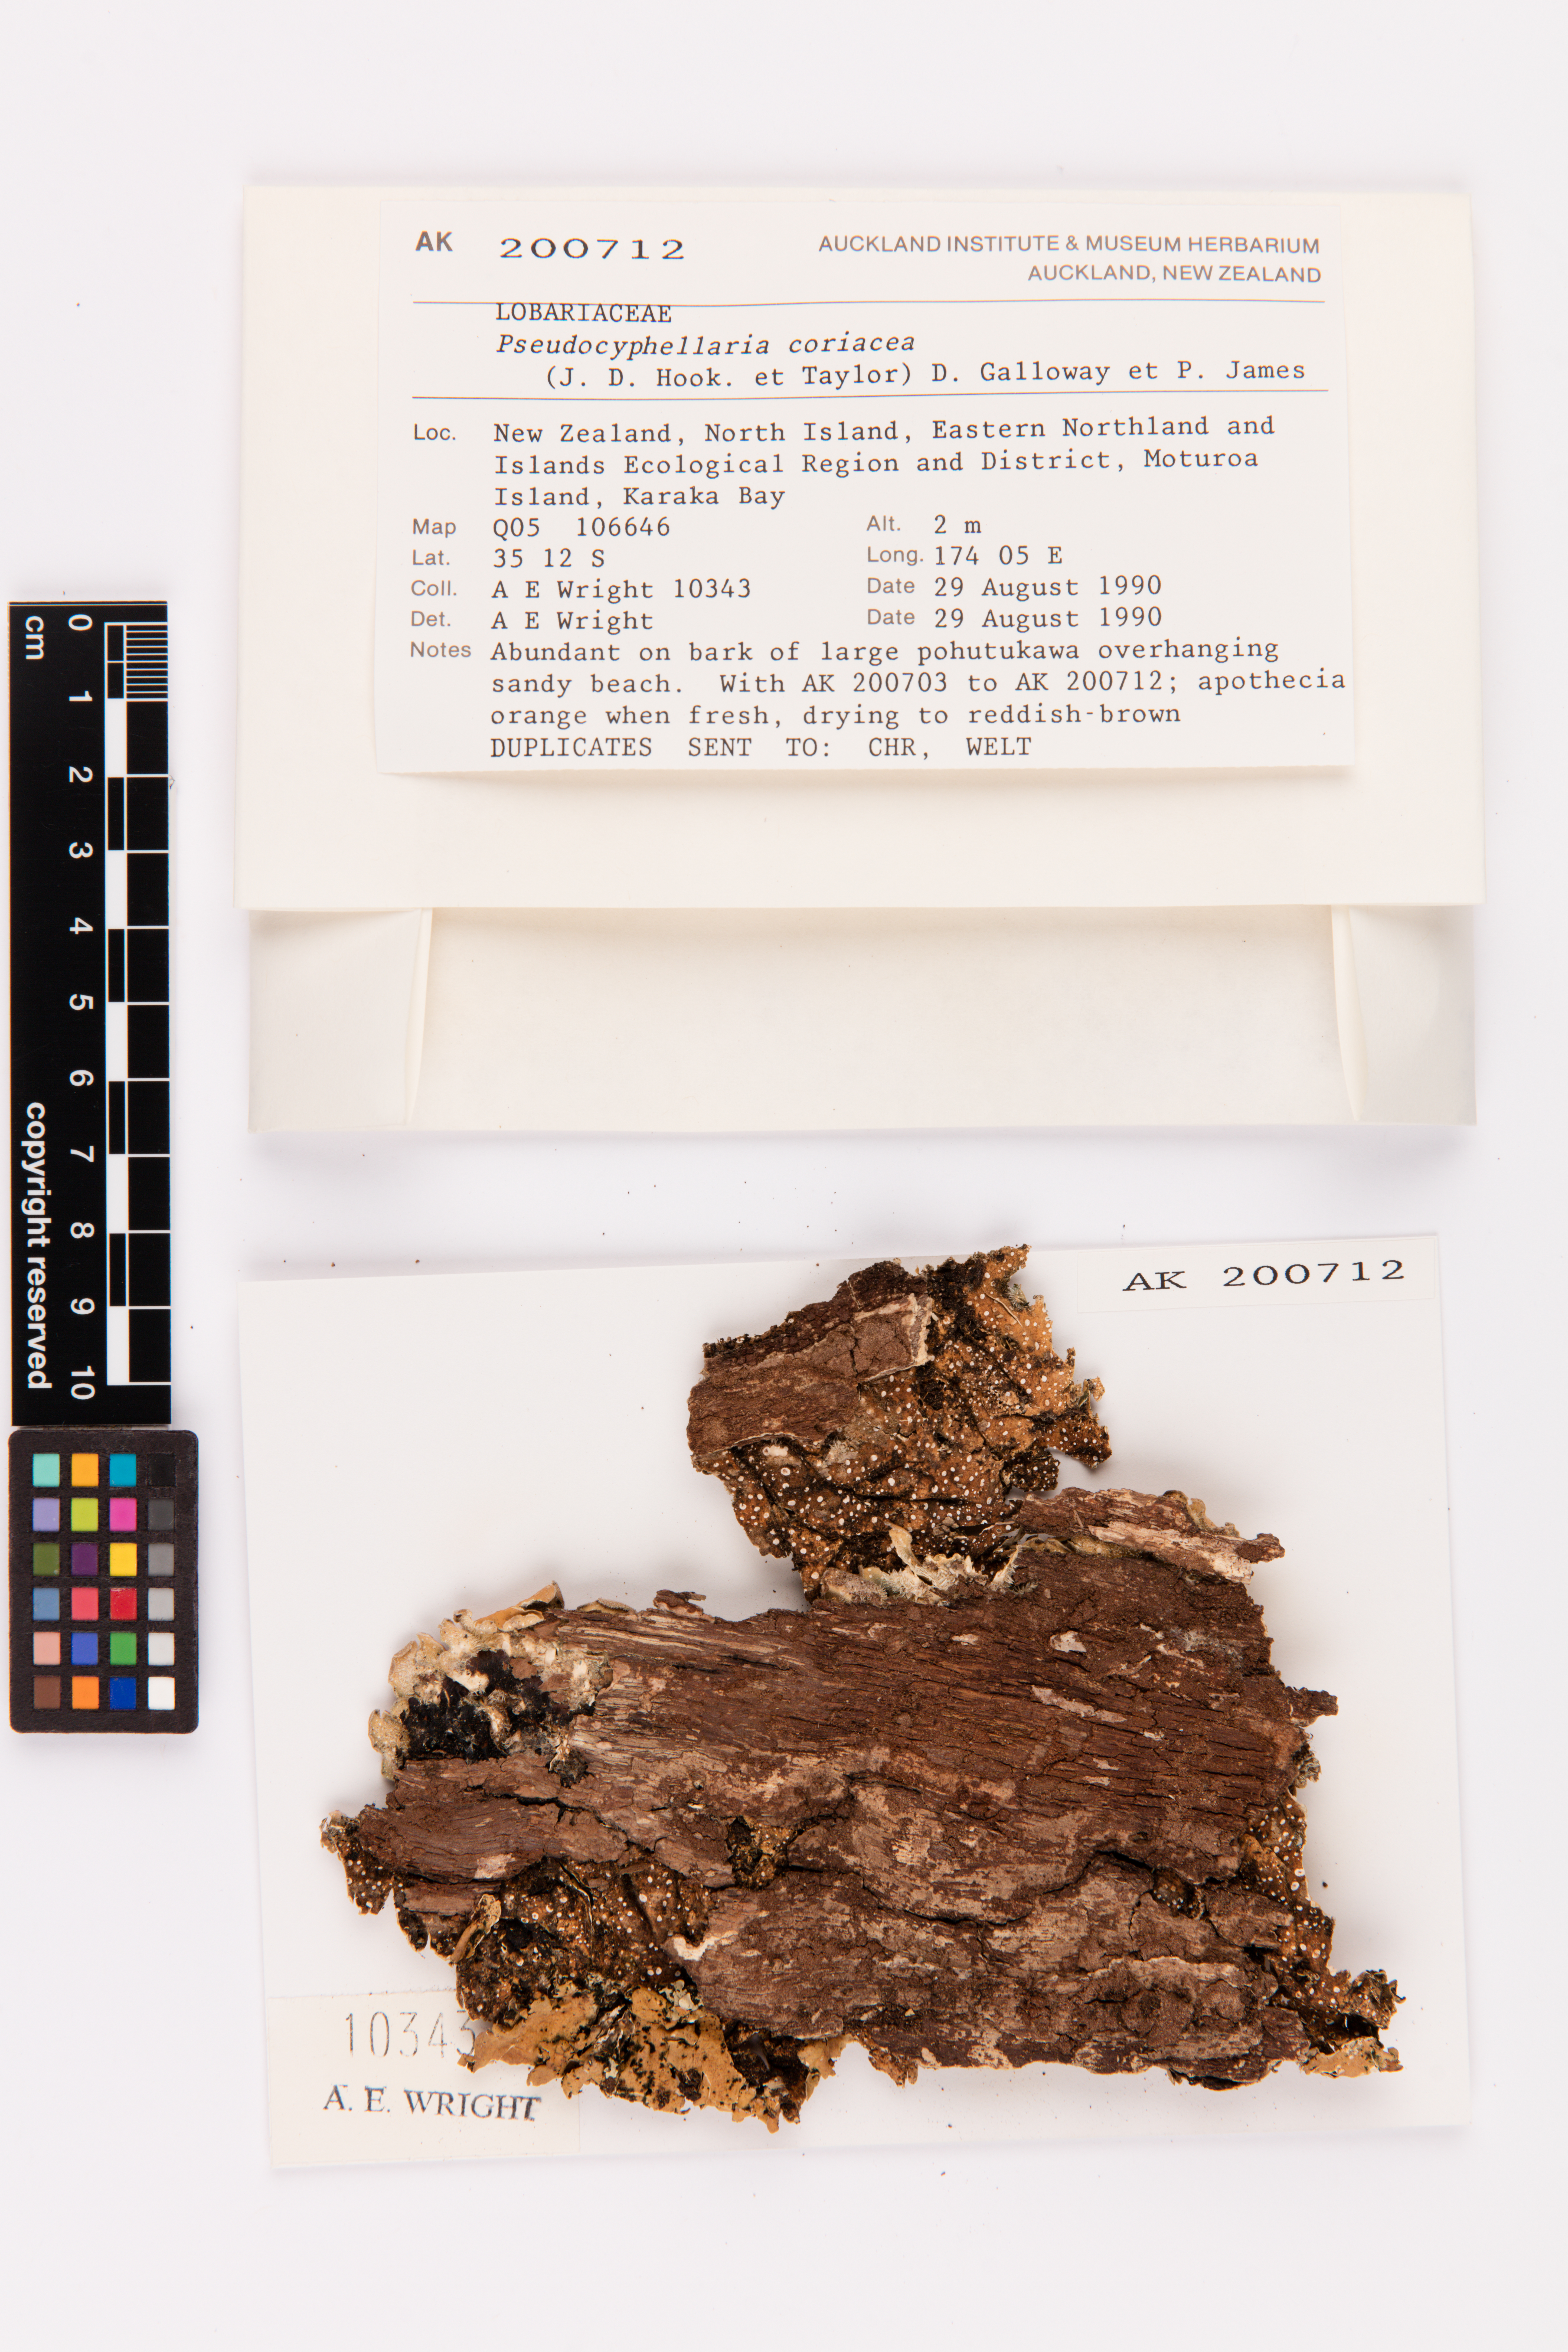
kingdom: Fungi
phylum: Ascomycota
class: Lecanoromycetes
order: Peltigerales
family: Lobariaceae
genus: Pseudocyphellaria
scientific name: Pseudocyphellaria coriacea
